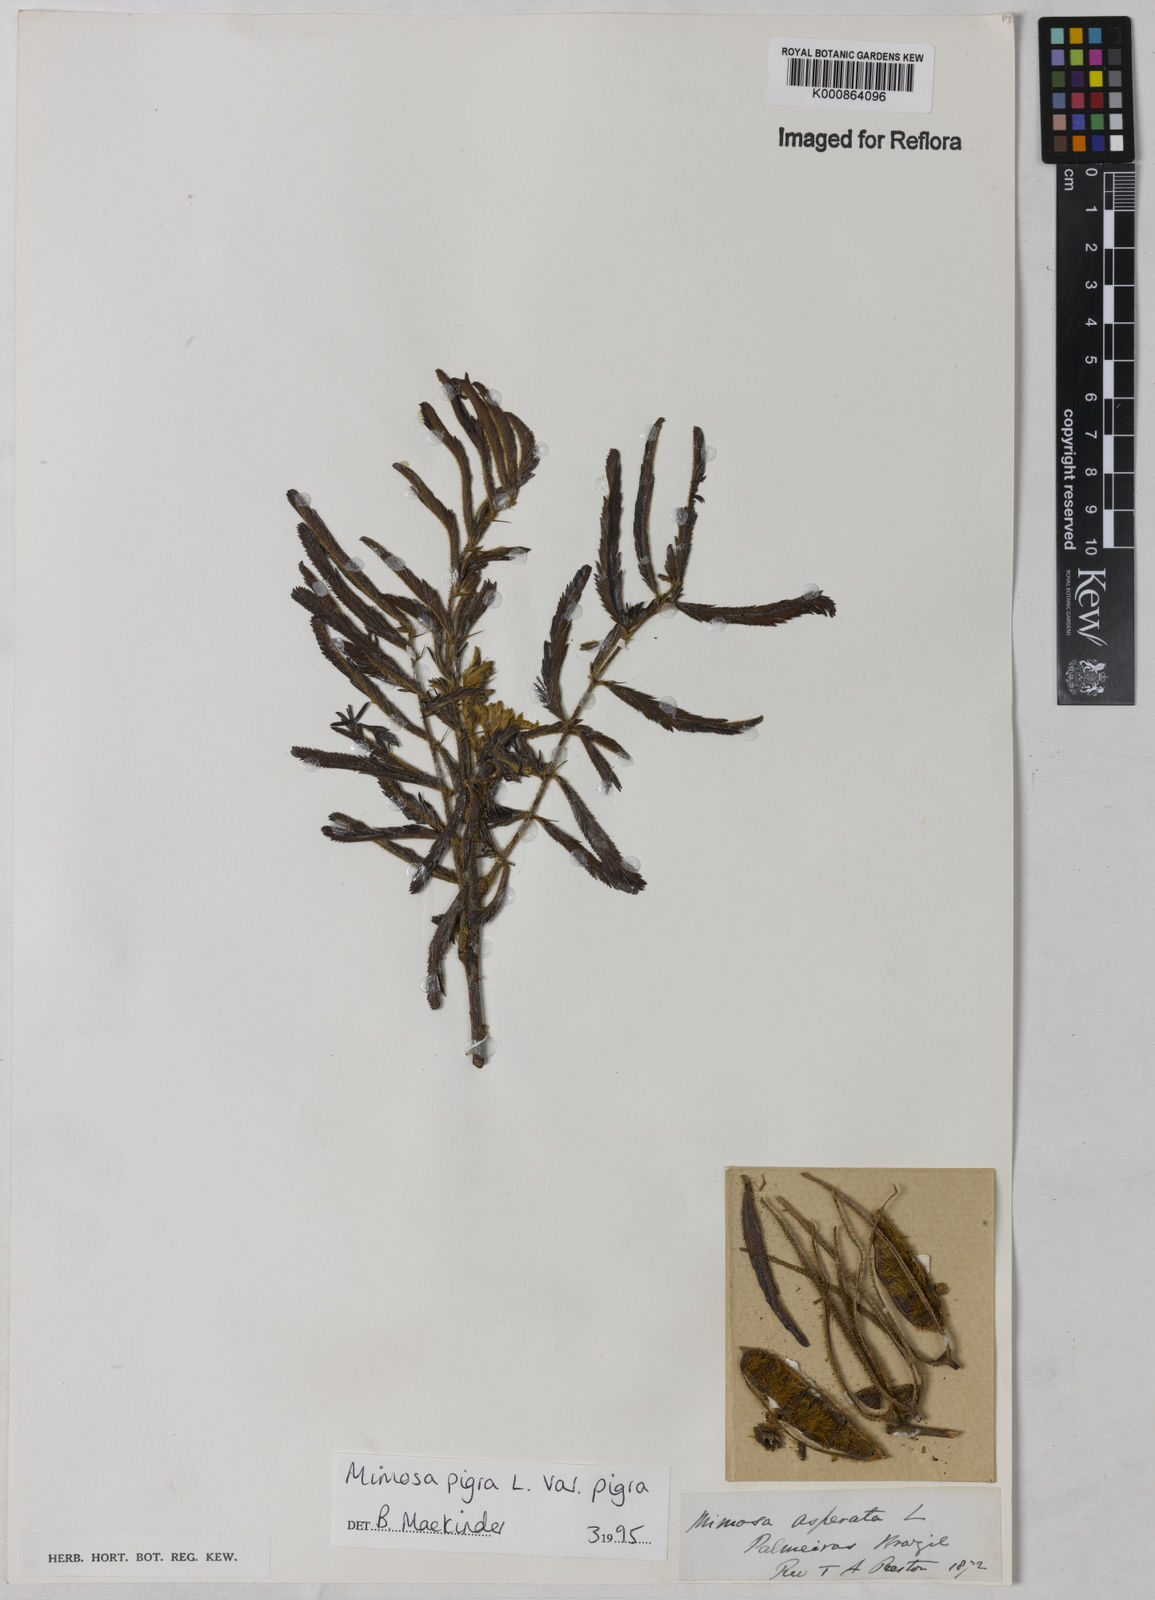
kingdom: Plantae
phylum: Tracheophyta
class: Magnoliopsida
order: Fabales
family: Fabaceae
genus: Mimosa
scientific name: Mimosa pigra
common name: Black mimosa
